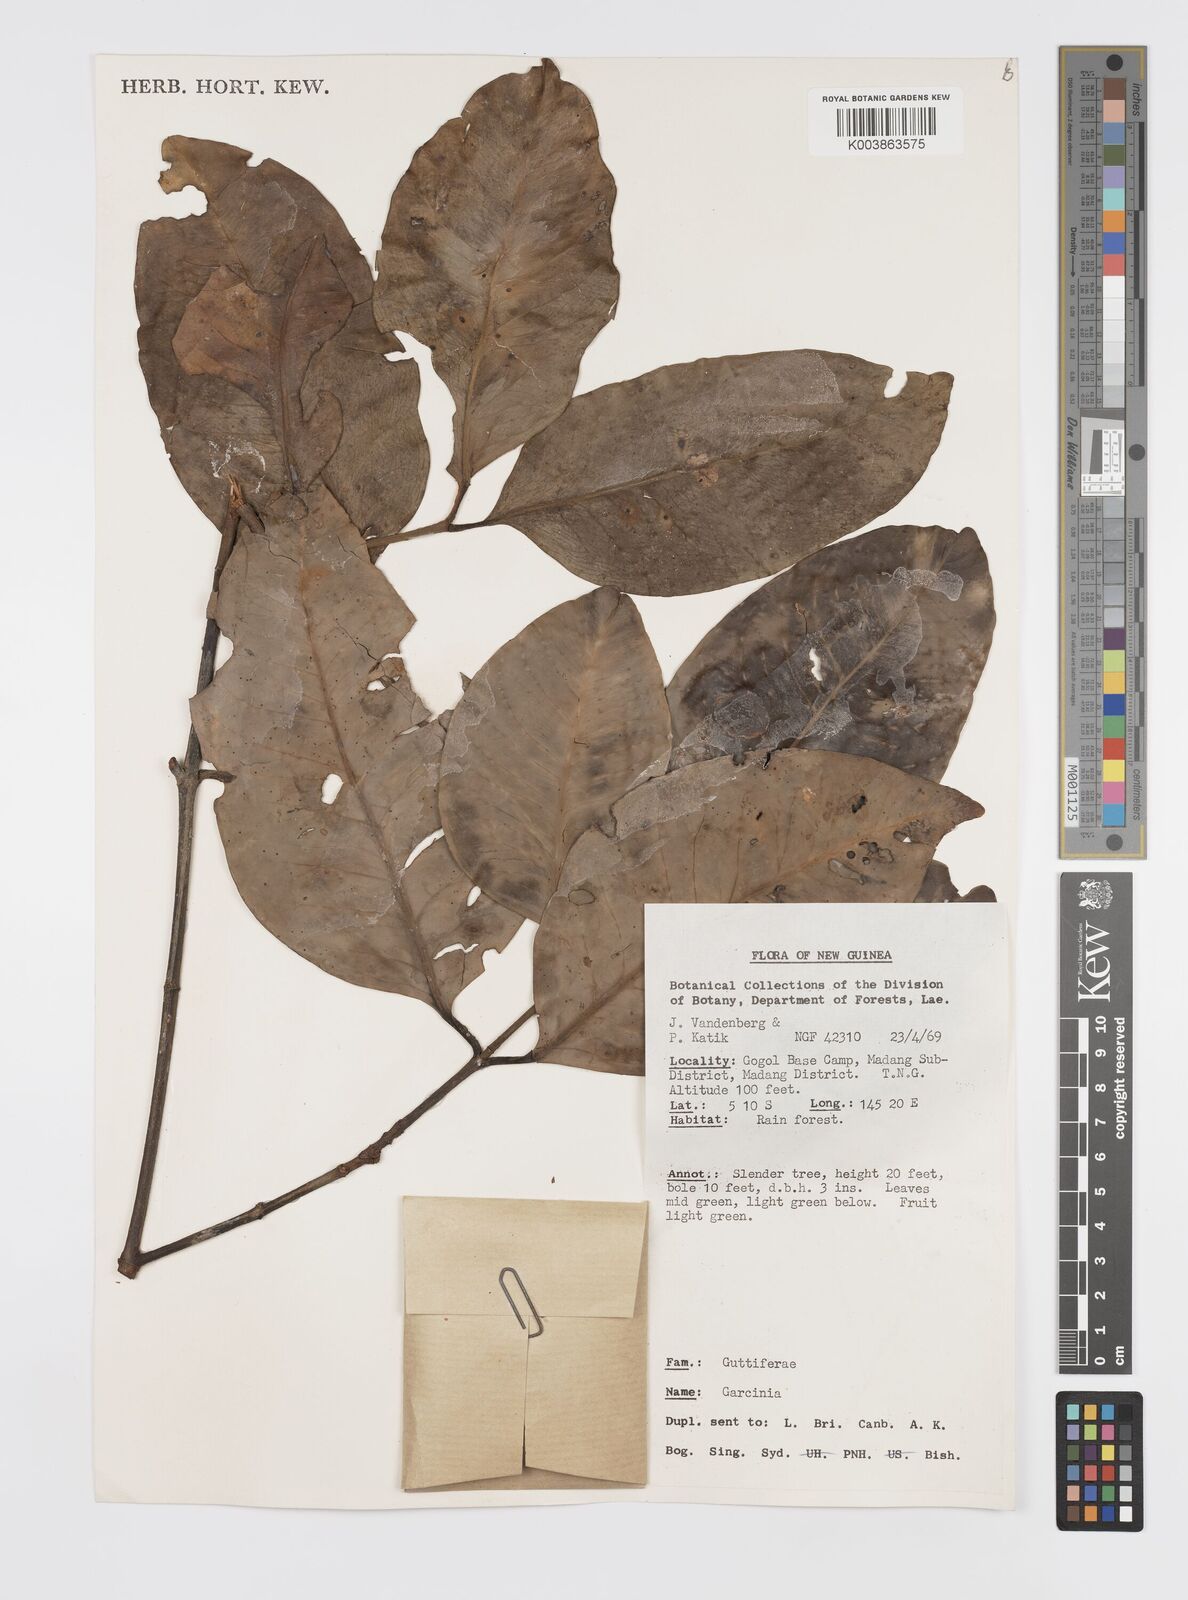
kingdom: Plantae
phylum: Tracheophyta
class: Magnoliopsida
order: Malpighiales
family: Clusiaceae
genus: Garcinia
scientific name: Garcinia
